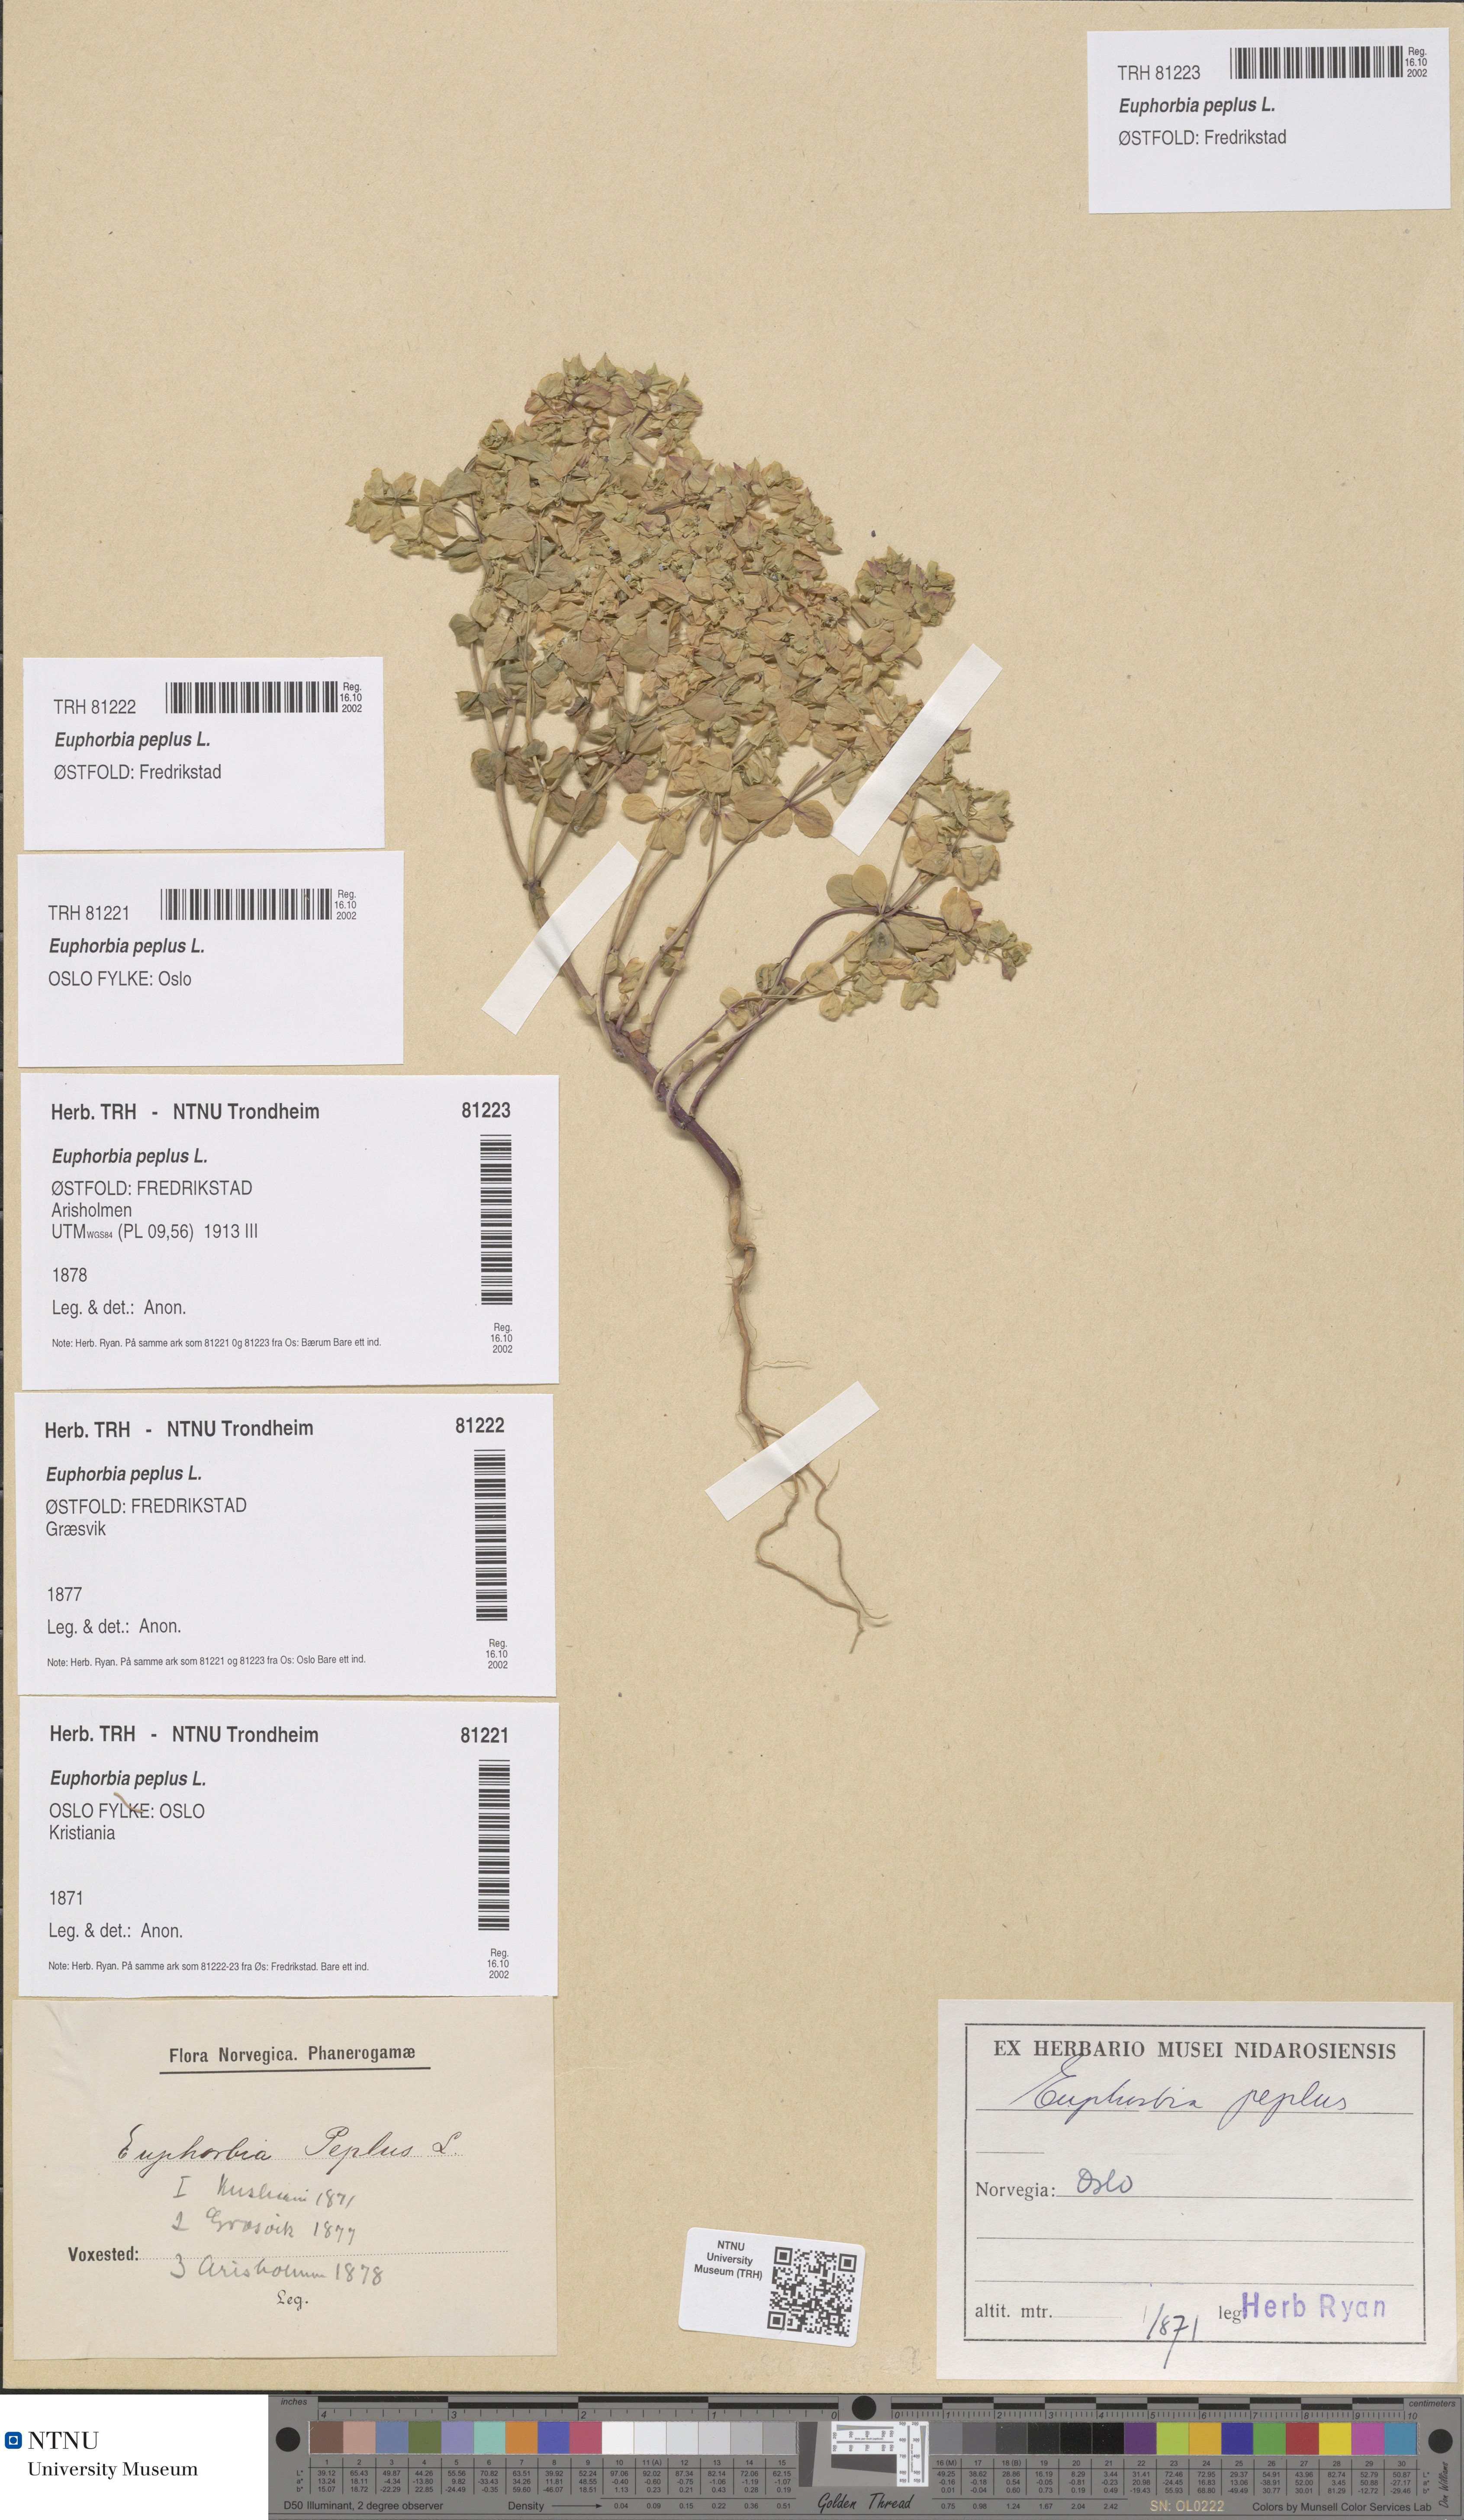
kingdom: Plantae
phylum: Tracheophyta
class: Magnoliopsida
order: Malpighiales
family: Euphorbiaceae
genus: Euphorbia
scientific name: Euphorbia peplus
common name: Petty spurge
